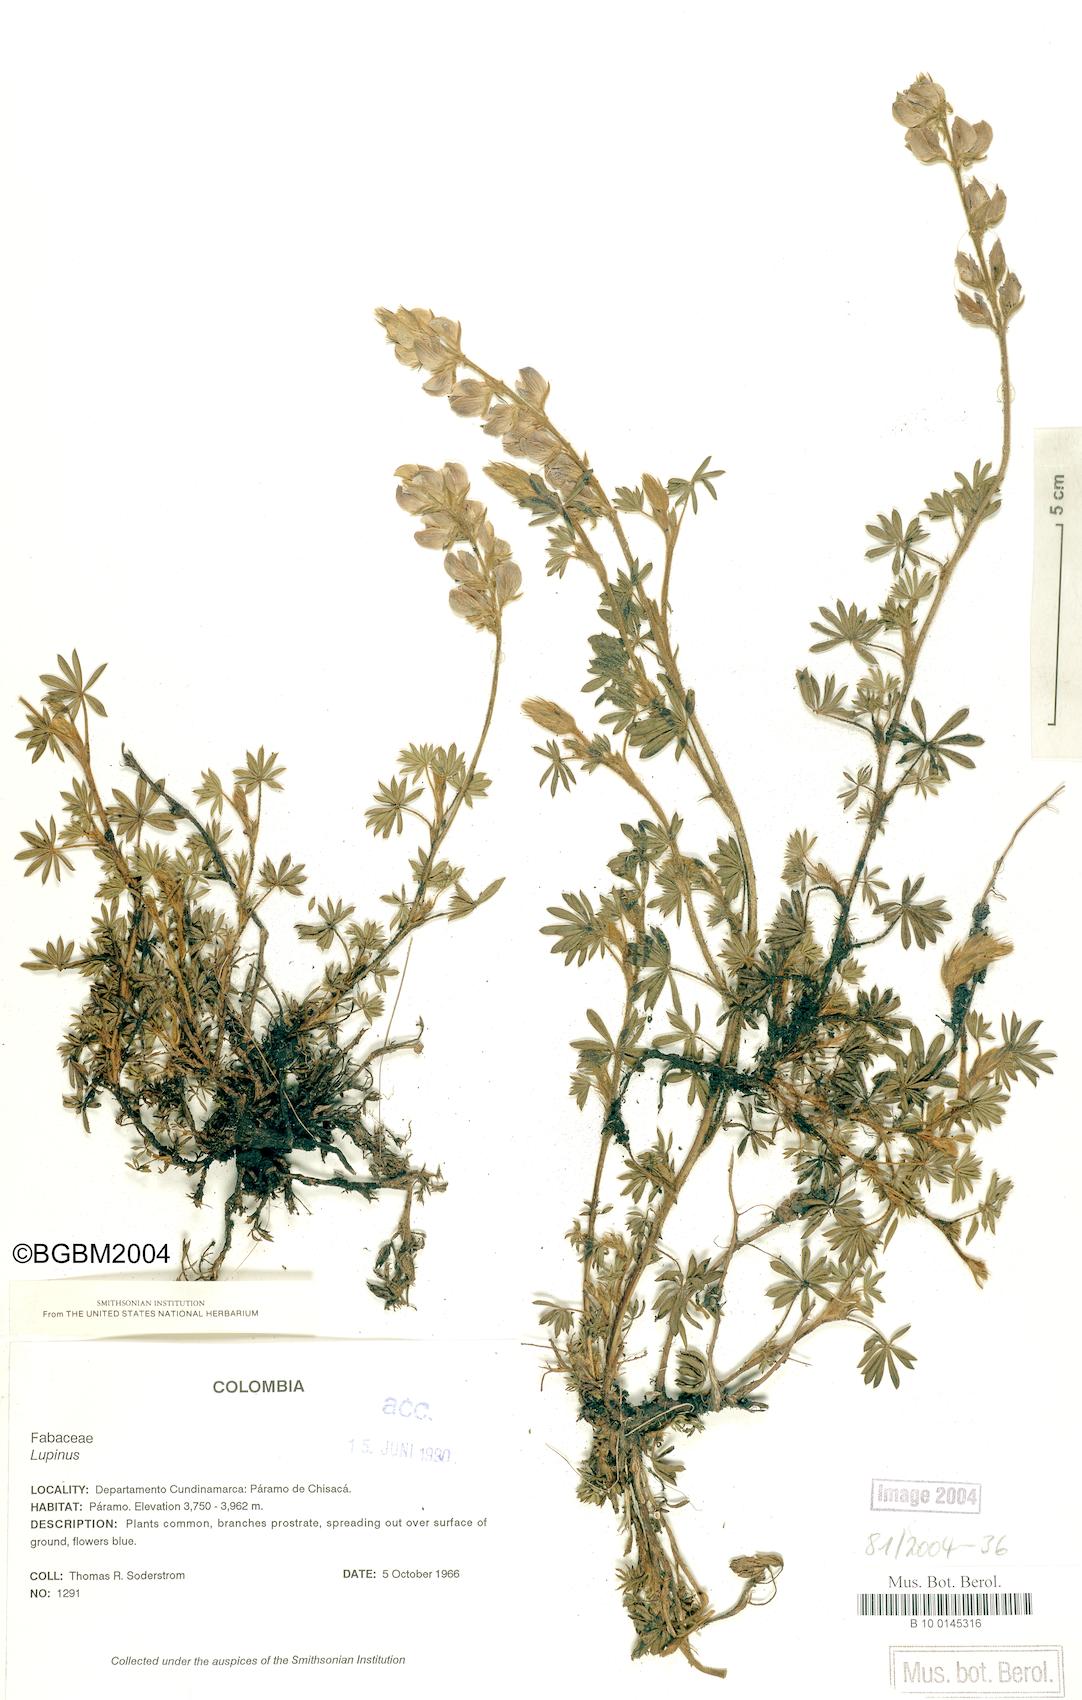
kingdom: Plantae
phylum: Tracheophyta
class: Magnoliopsida
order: Fabales
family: Fabaceae
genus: Lupinus
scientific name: Lupinus
